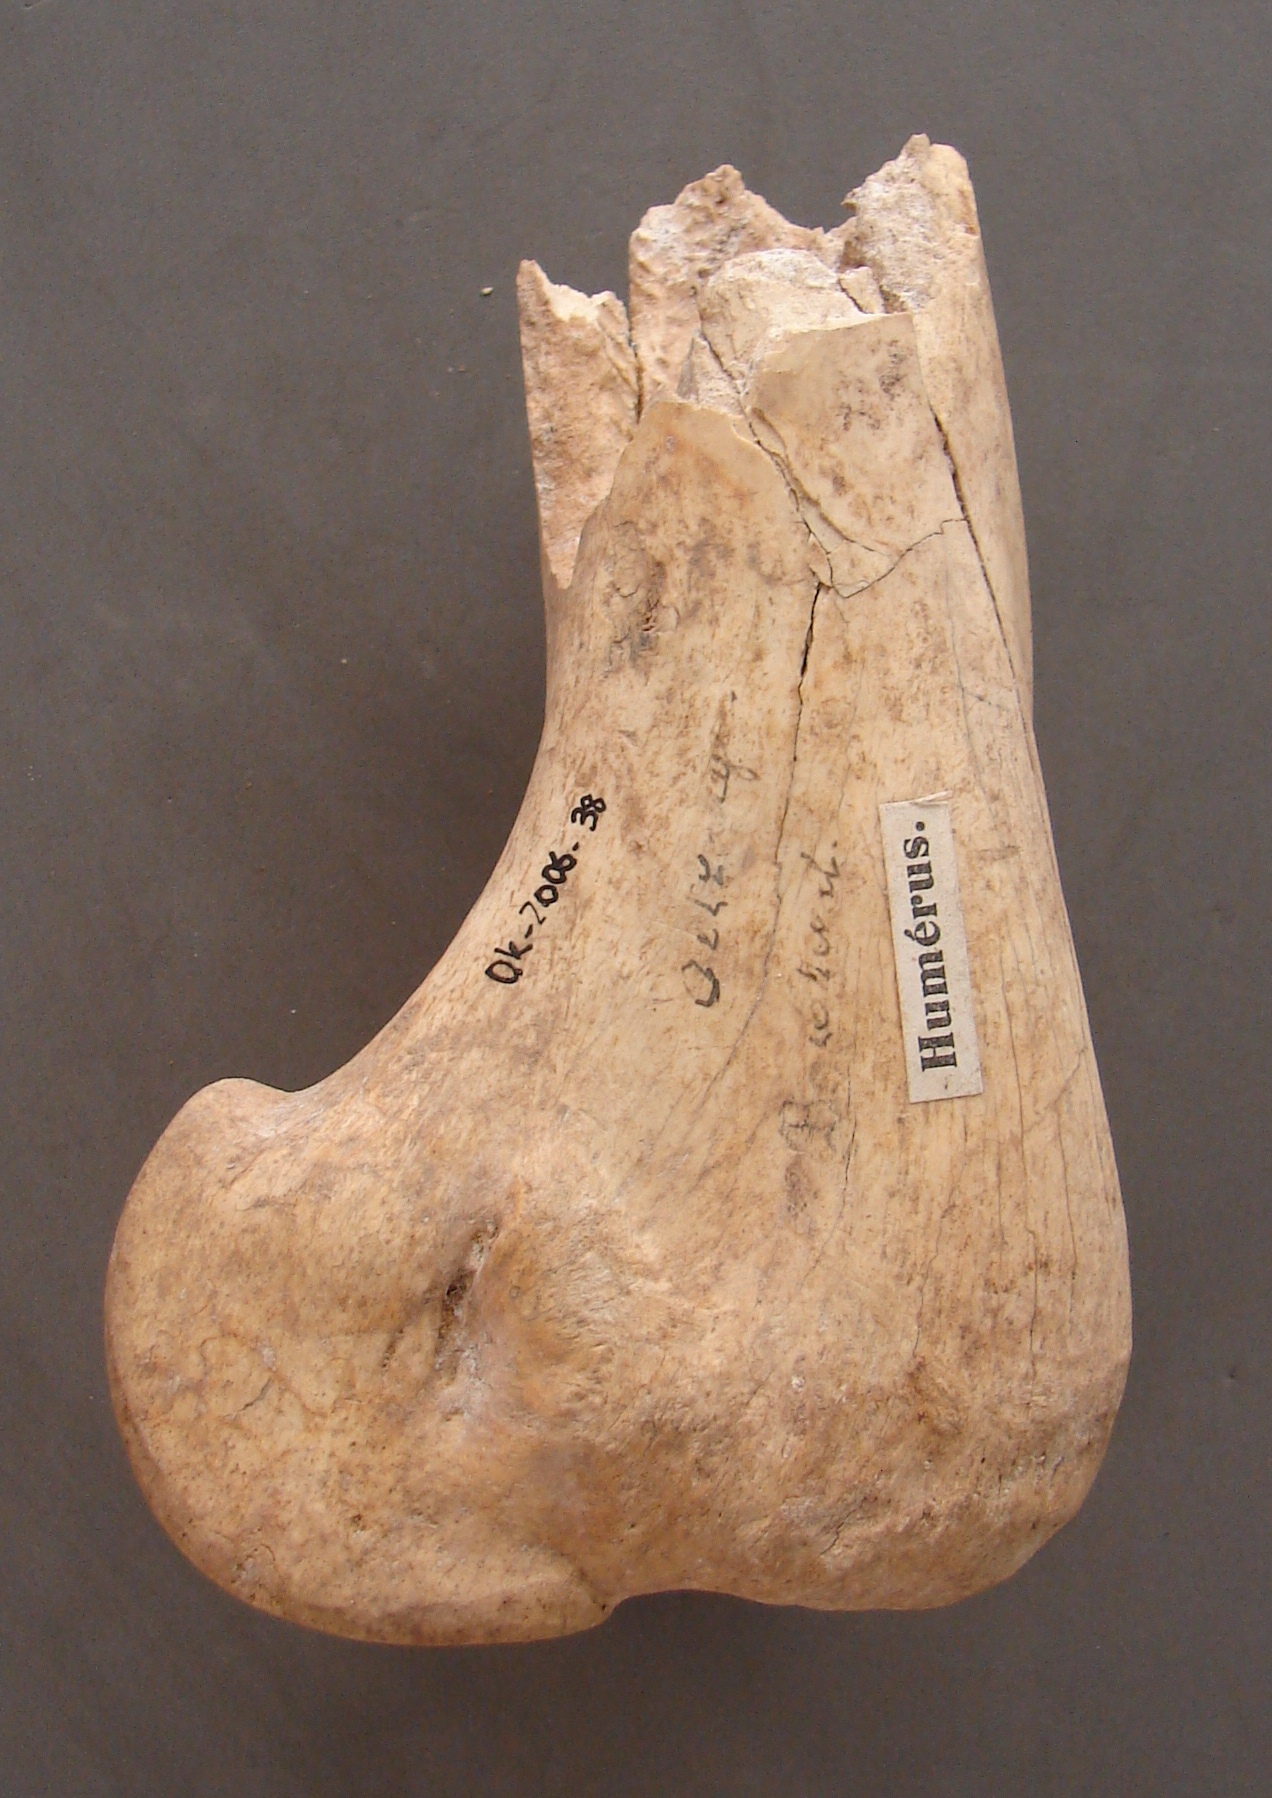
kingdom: Animalia
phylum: Chordata
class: Mammalia
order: Perissodactyla
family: Equidae
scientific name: Equidae
